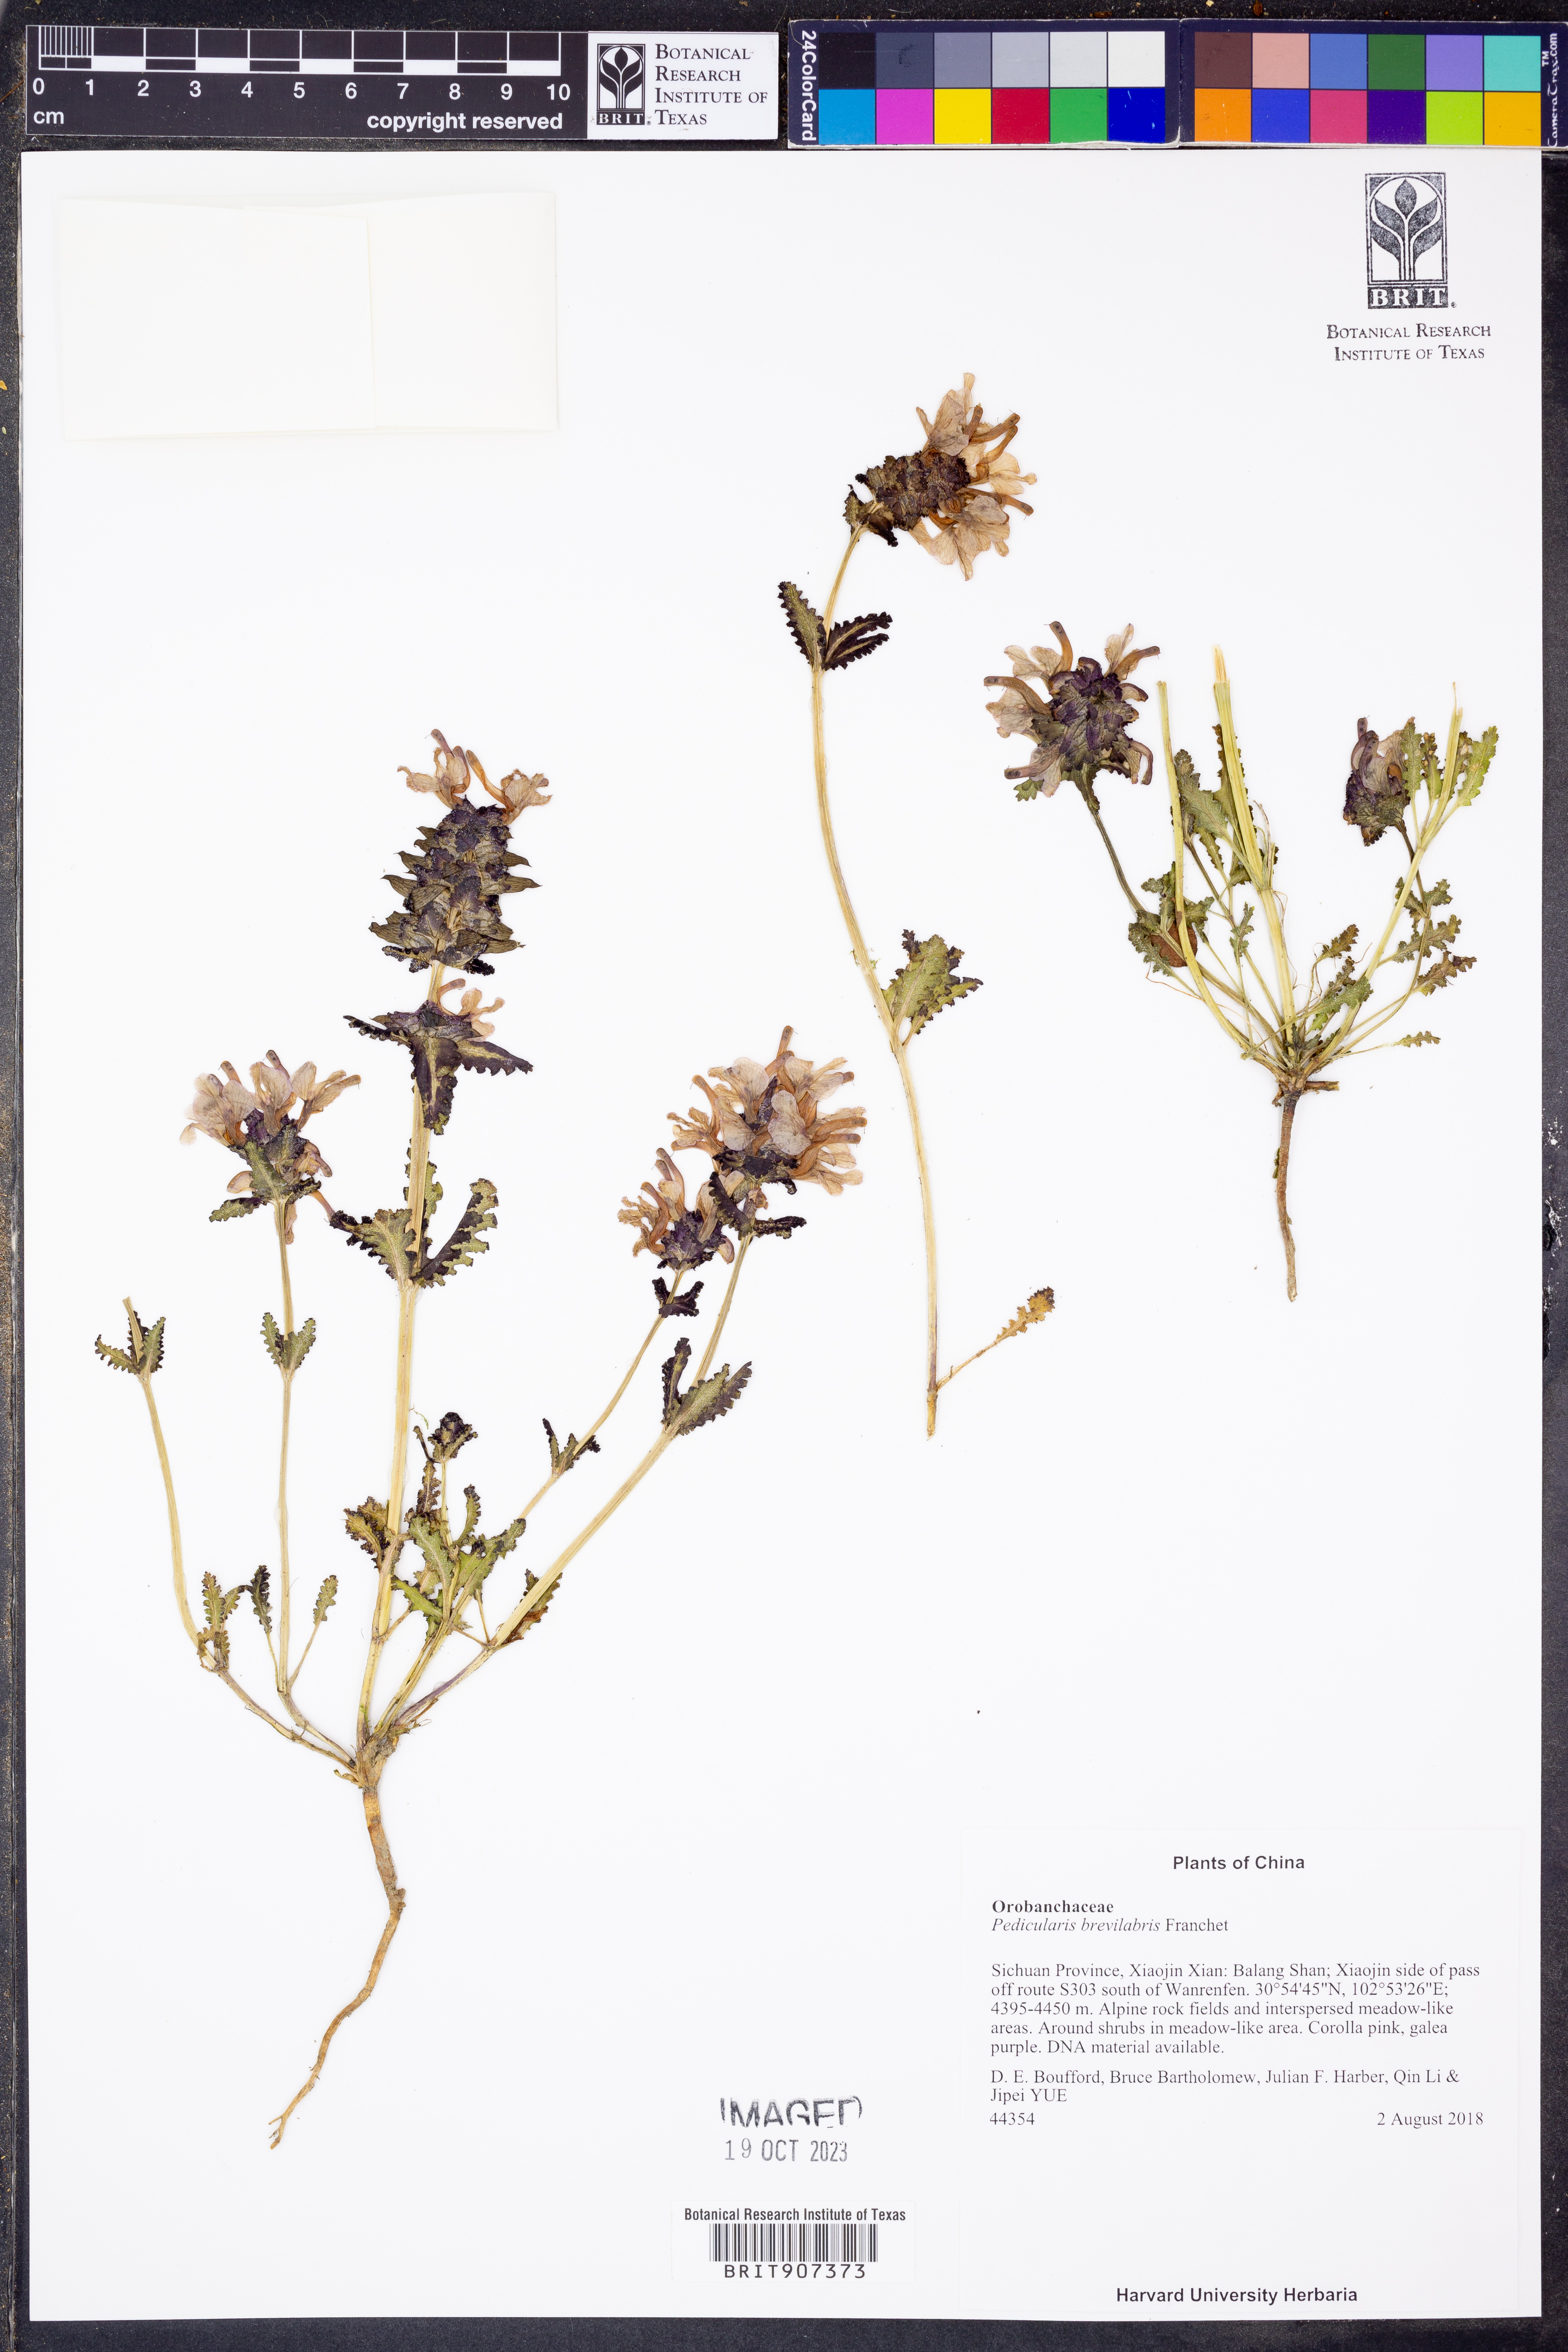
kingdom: Plantae
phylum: Tracheophyta
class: Magnoliopsida
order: Lamiales
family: Orobanchaceae
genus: Pedicularis
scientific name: Pedicularis brevilabris
